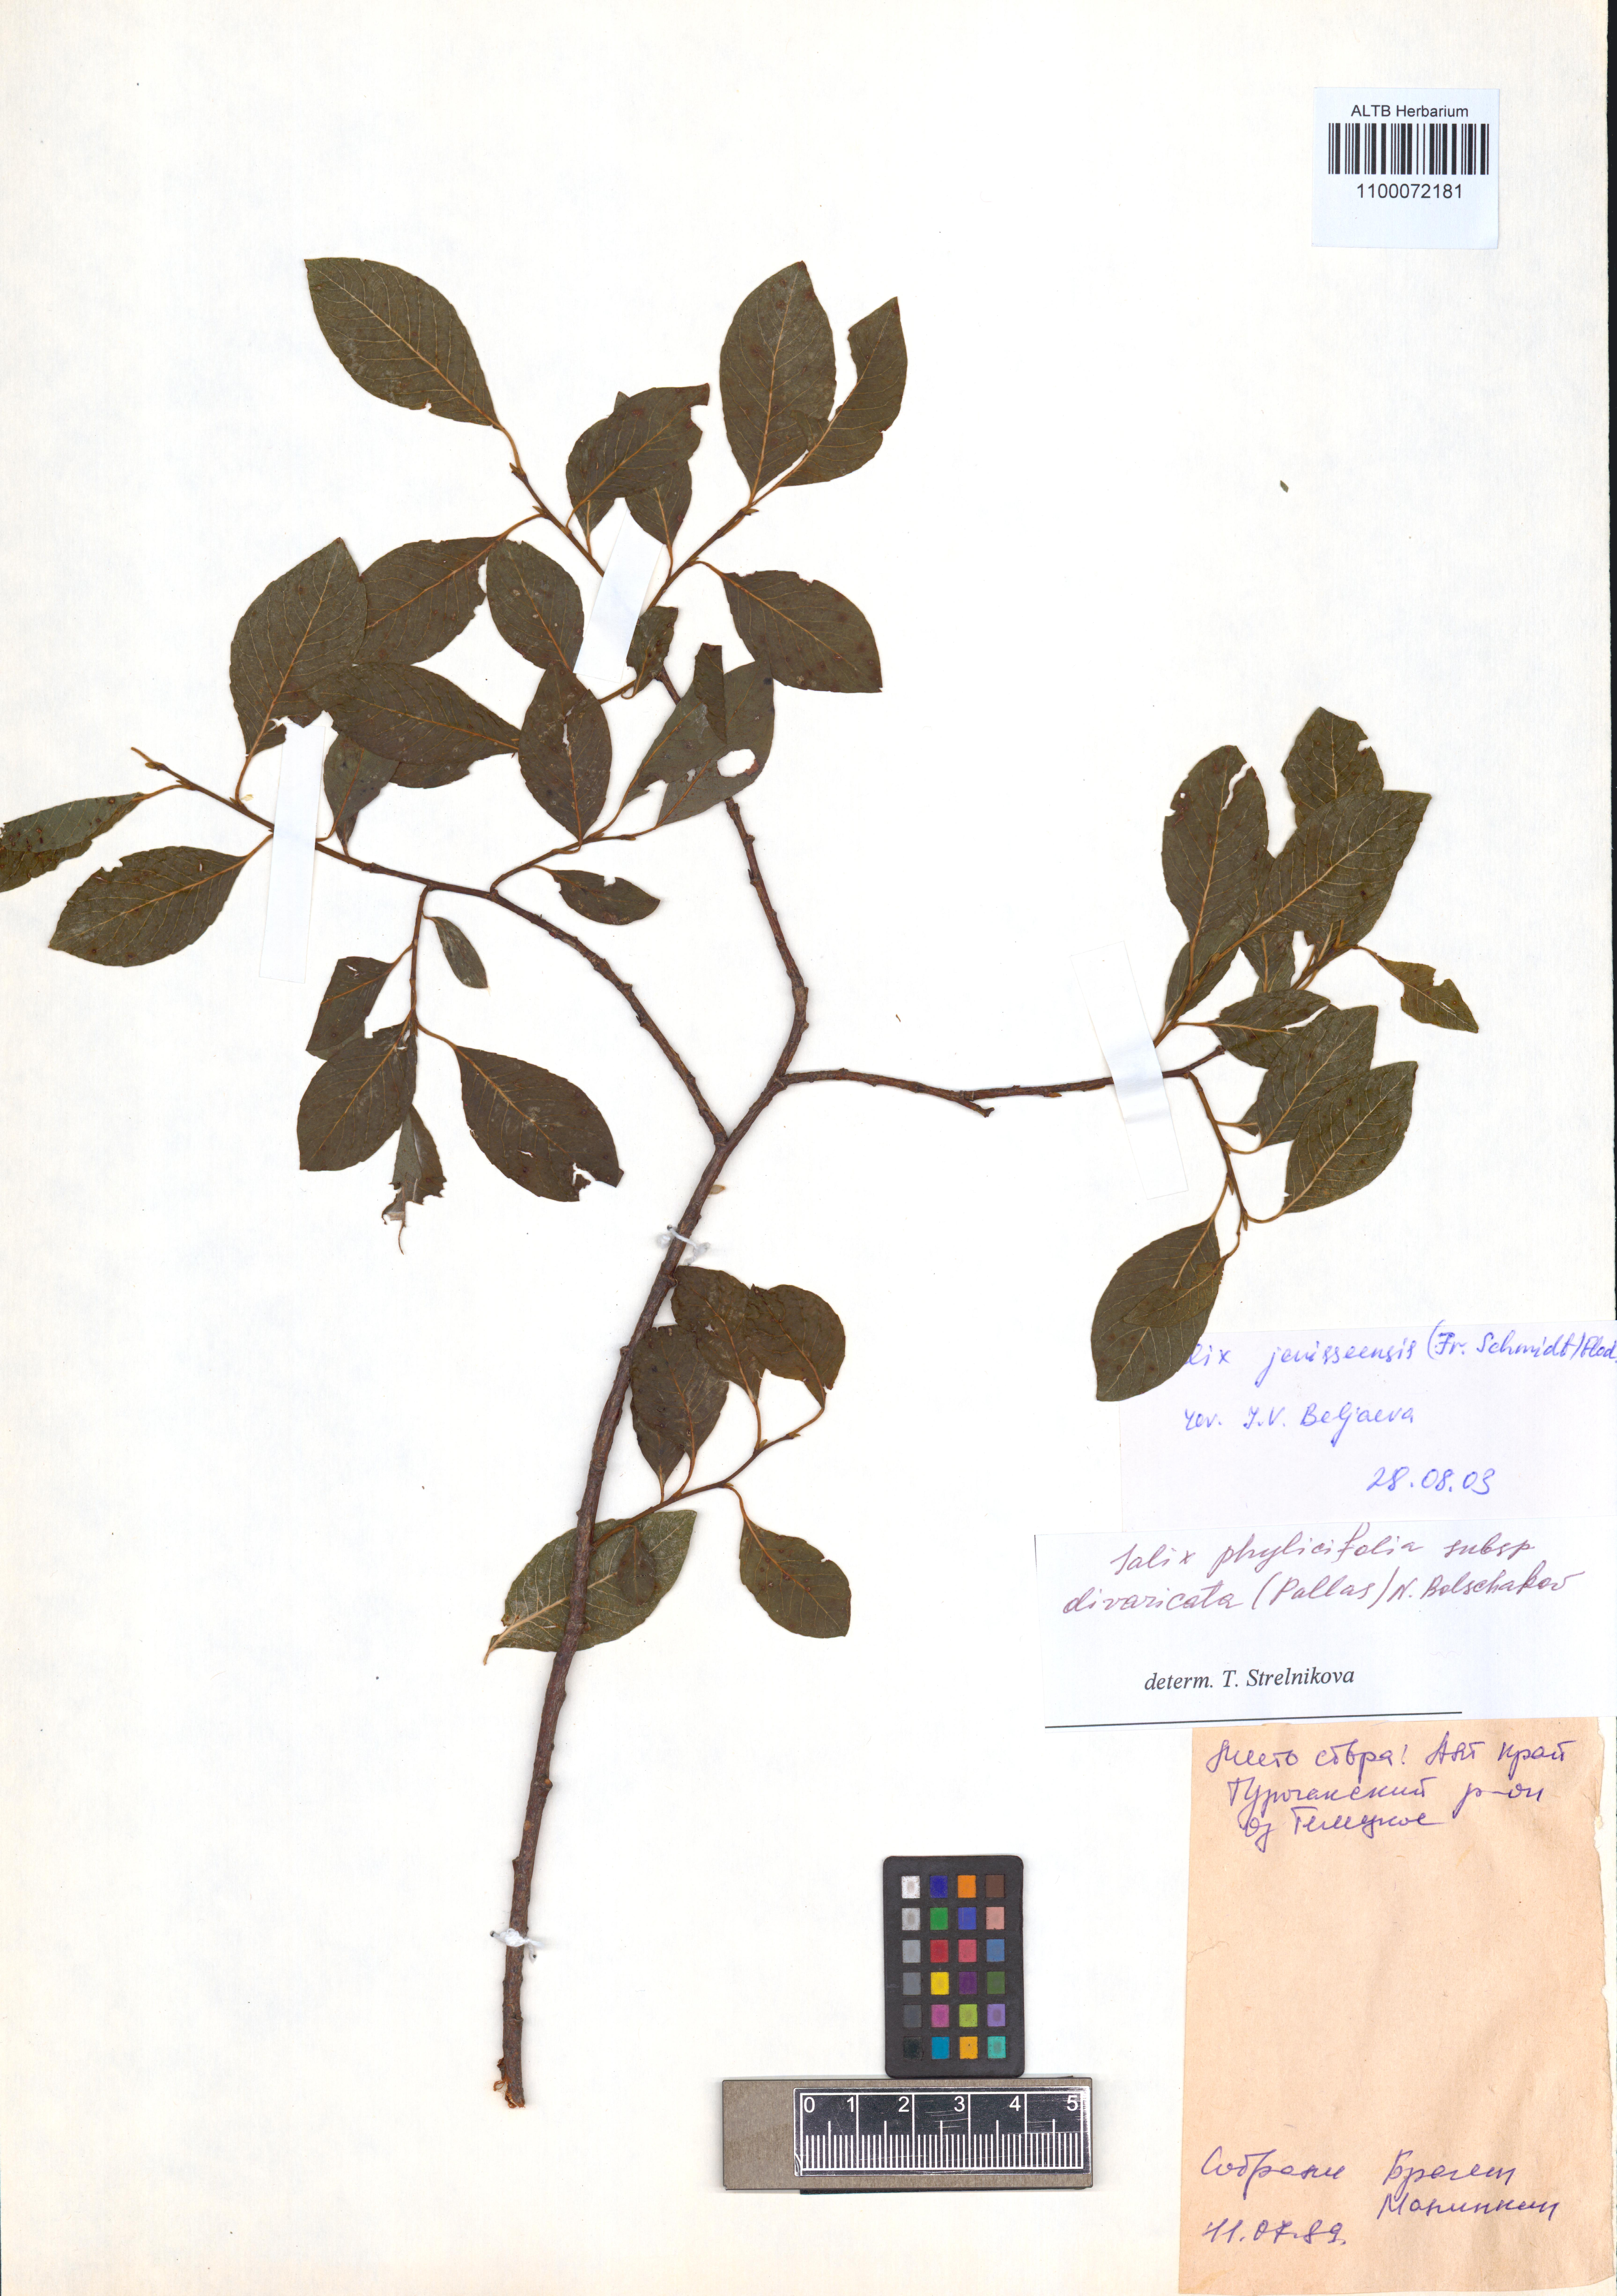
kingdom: Plantae
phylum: Tracheophyta
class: Magnoliopsida
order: Malpighiales
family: Salicaceae
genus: Salix
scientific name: Salix jenisseensis
